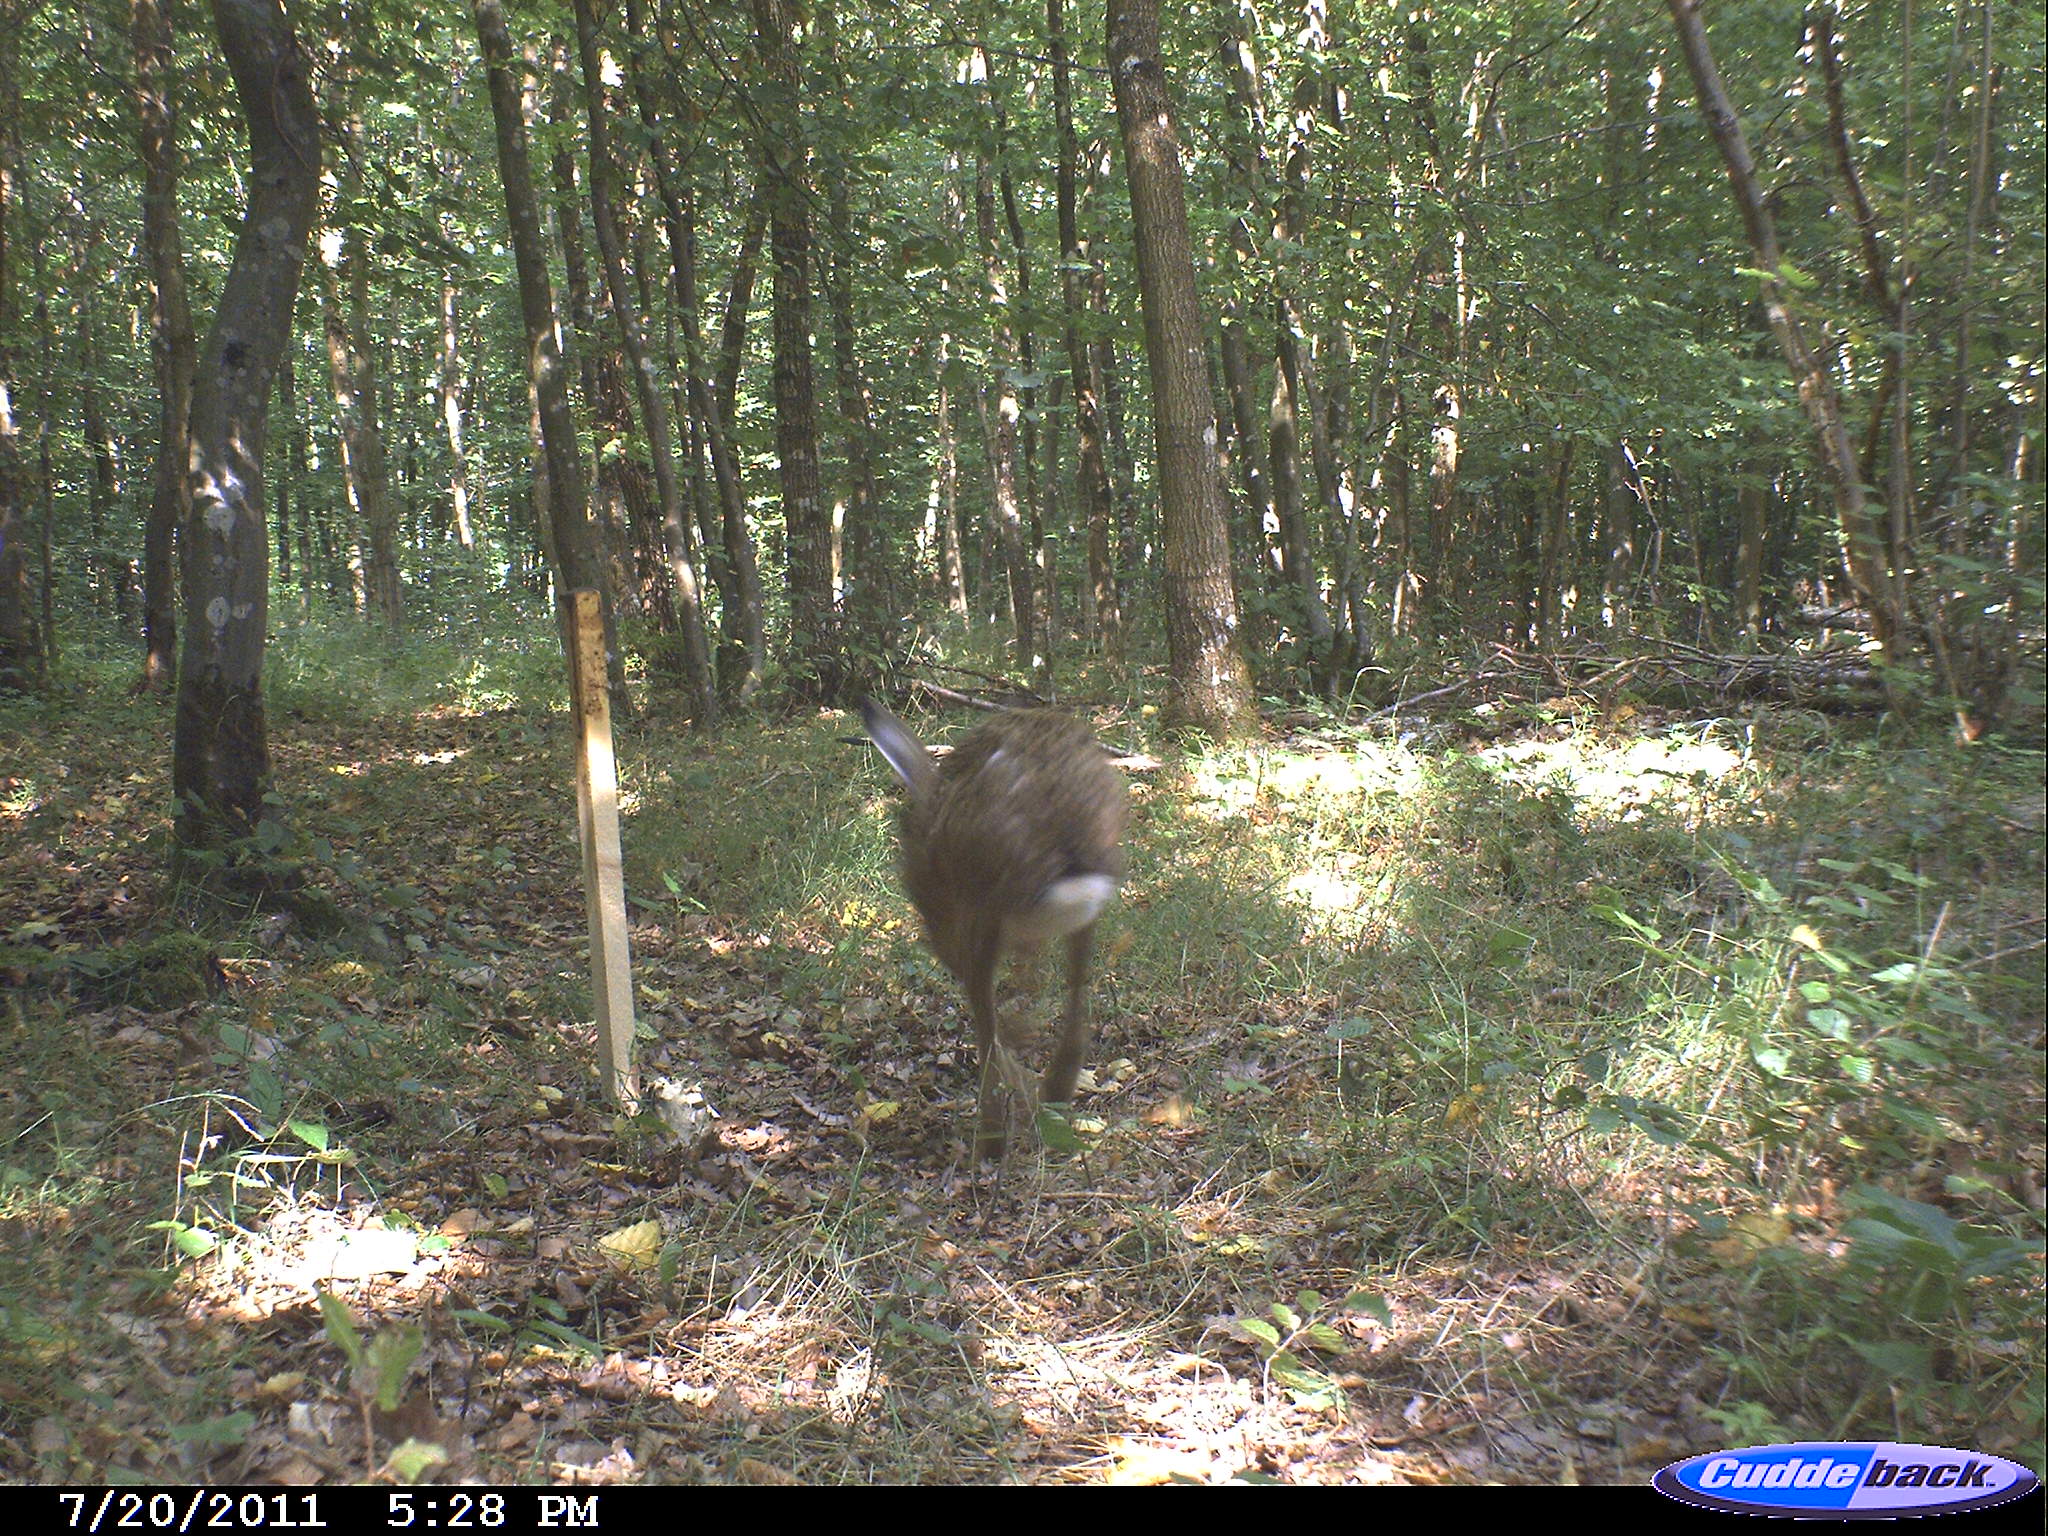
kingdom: Animalia
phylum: Chordata
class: Mammalia
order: Lagomorpha
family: Leporidae
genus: Lepus
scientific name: Lepus europaeus
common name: European hare
